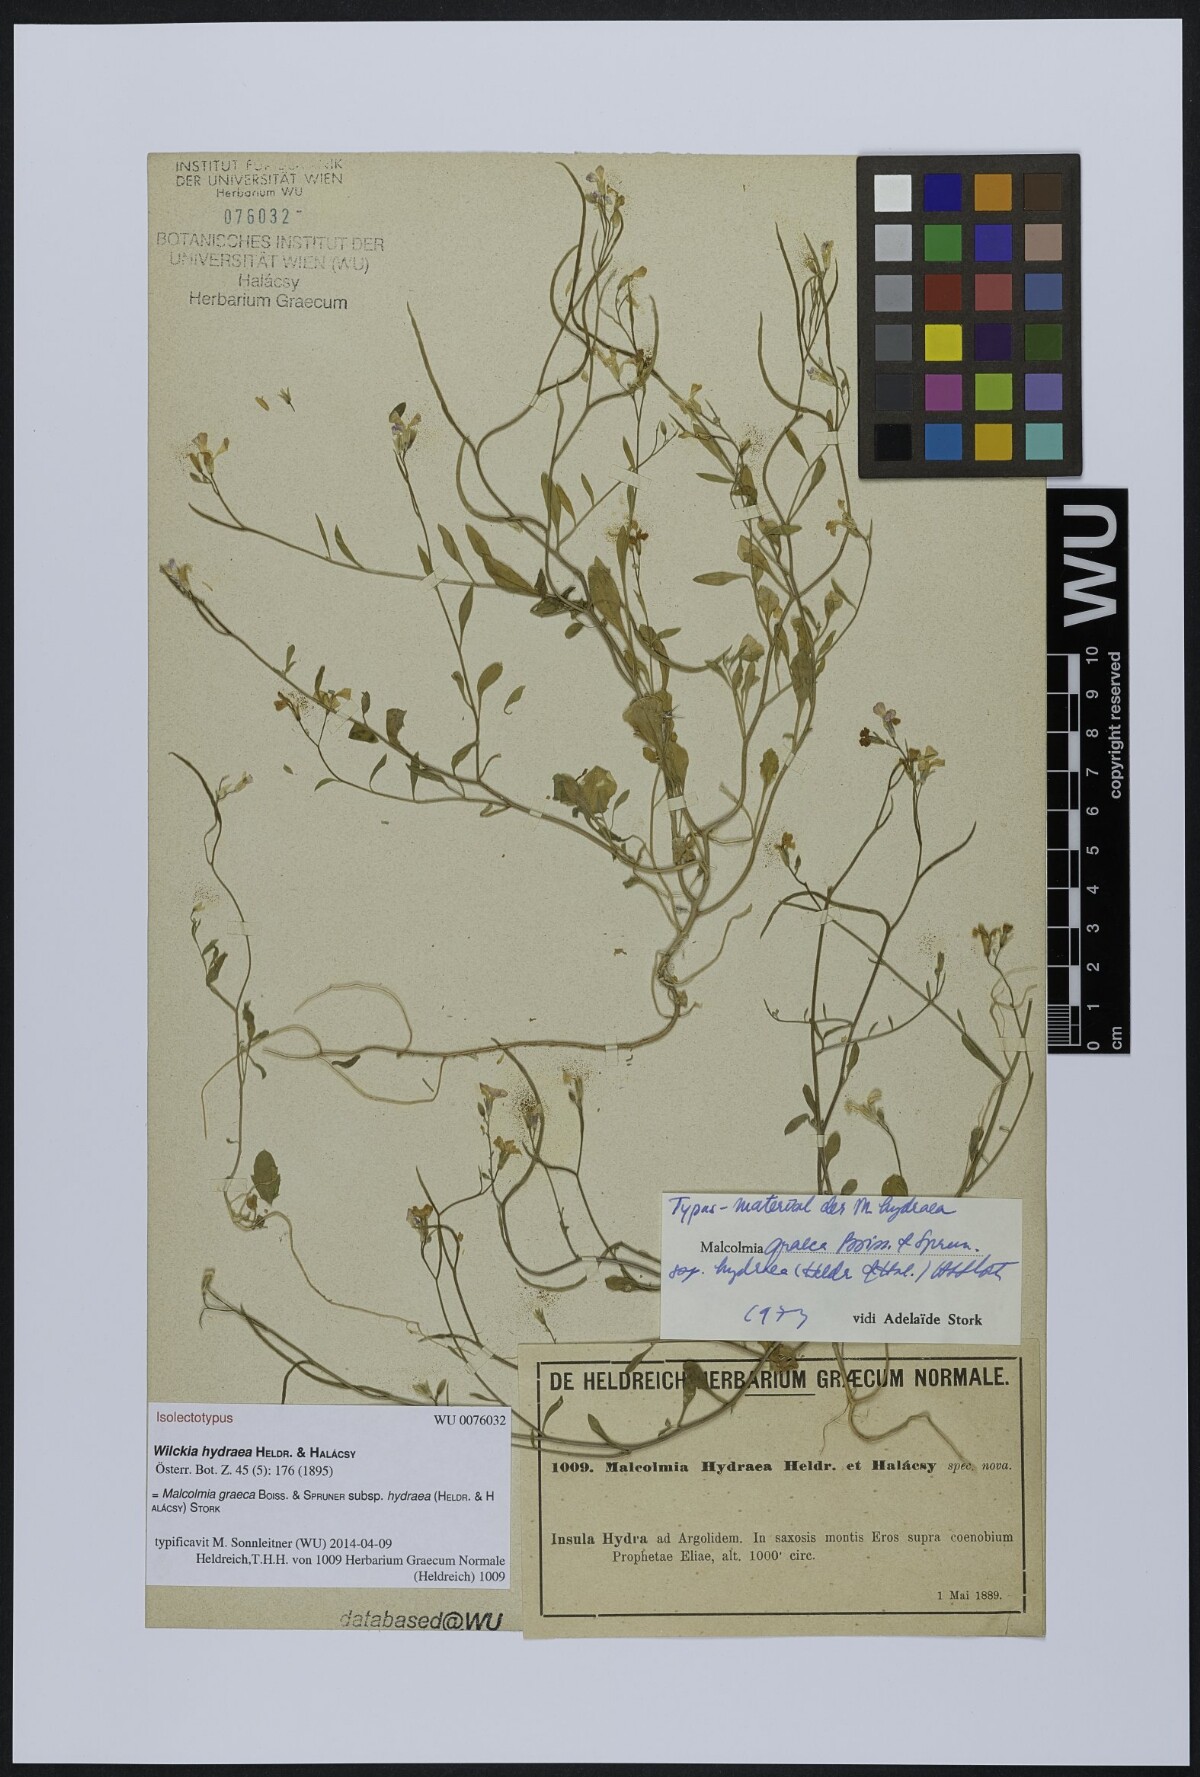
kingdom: Plantae
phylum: Tracheophyta
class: Magnoliopsida
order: Brassicales
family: Brassicaceae
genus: Malcolmia
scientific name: Malcolmia graeca
